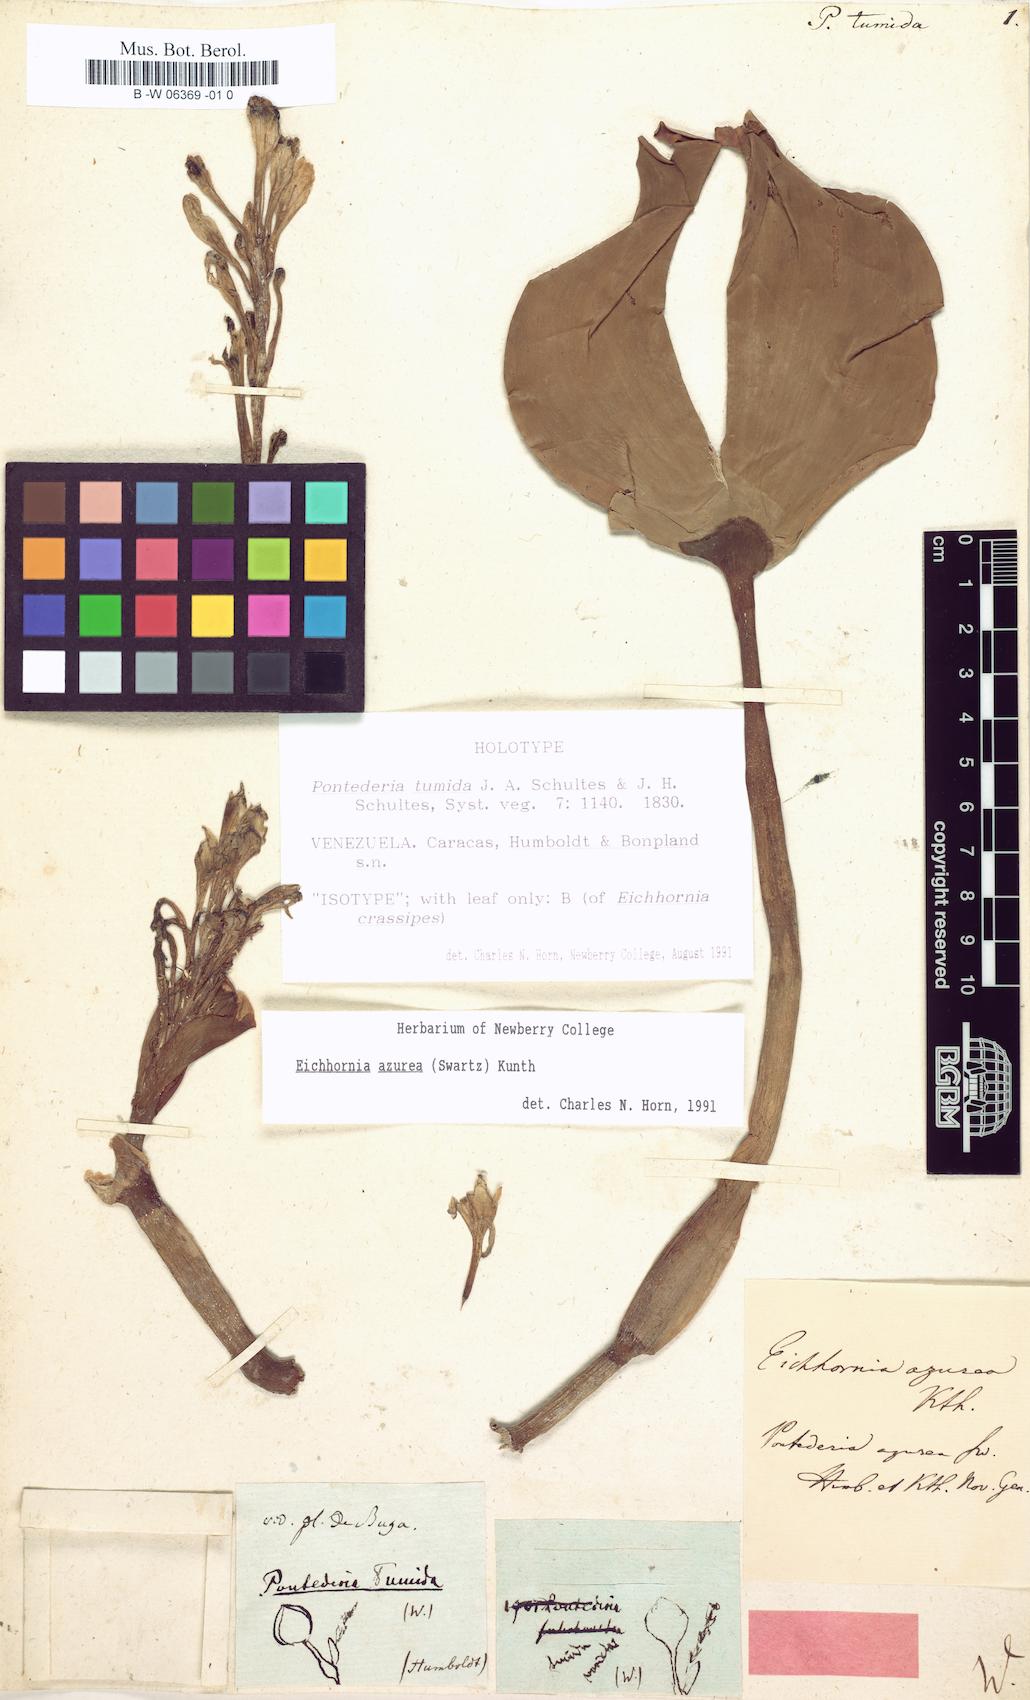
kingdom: Plantae
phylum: Tracheophyta
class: Liliopsida
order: Commelinales
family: Pontederiaceae
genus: Pontederia
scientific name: Pontederia azurea
